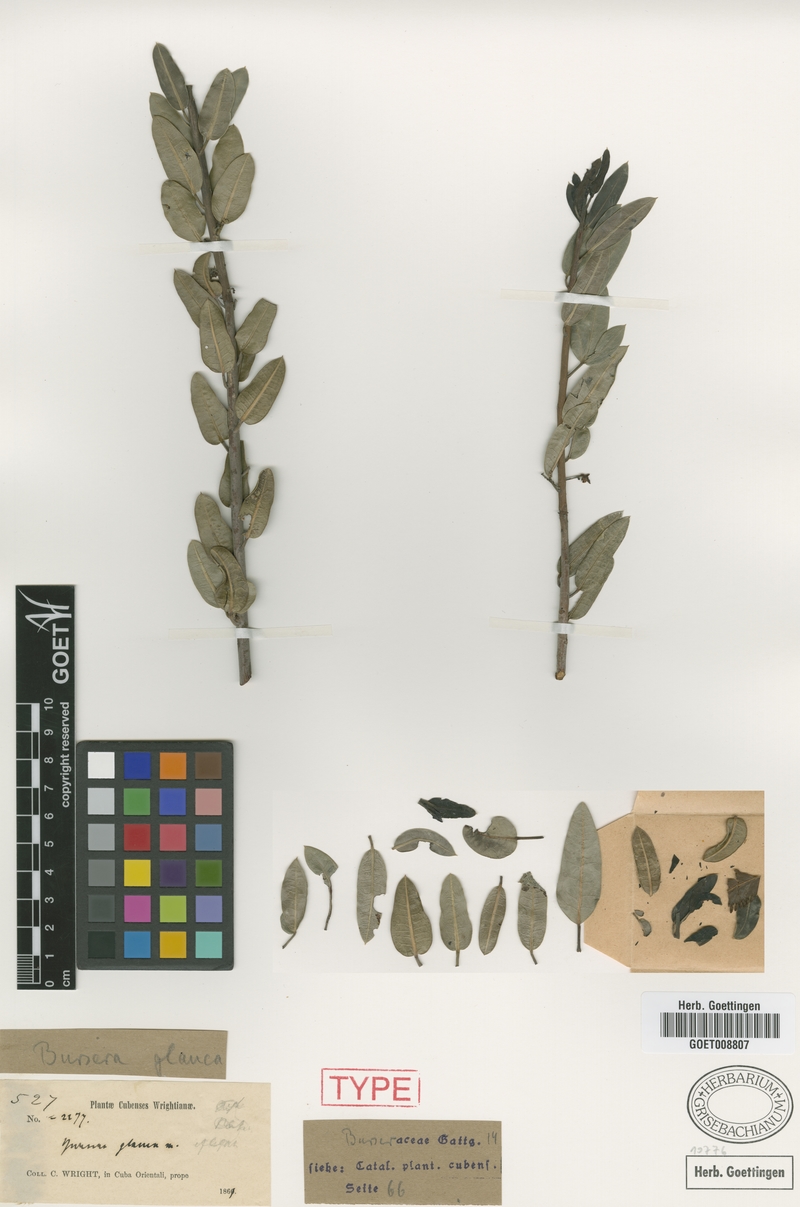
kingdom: Plantae
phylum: Tracheophyta
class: Magnoliopsida
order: Sapindales
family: Burseraceae
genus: Bursera
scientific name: Bursera glauca
